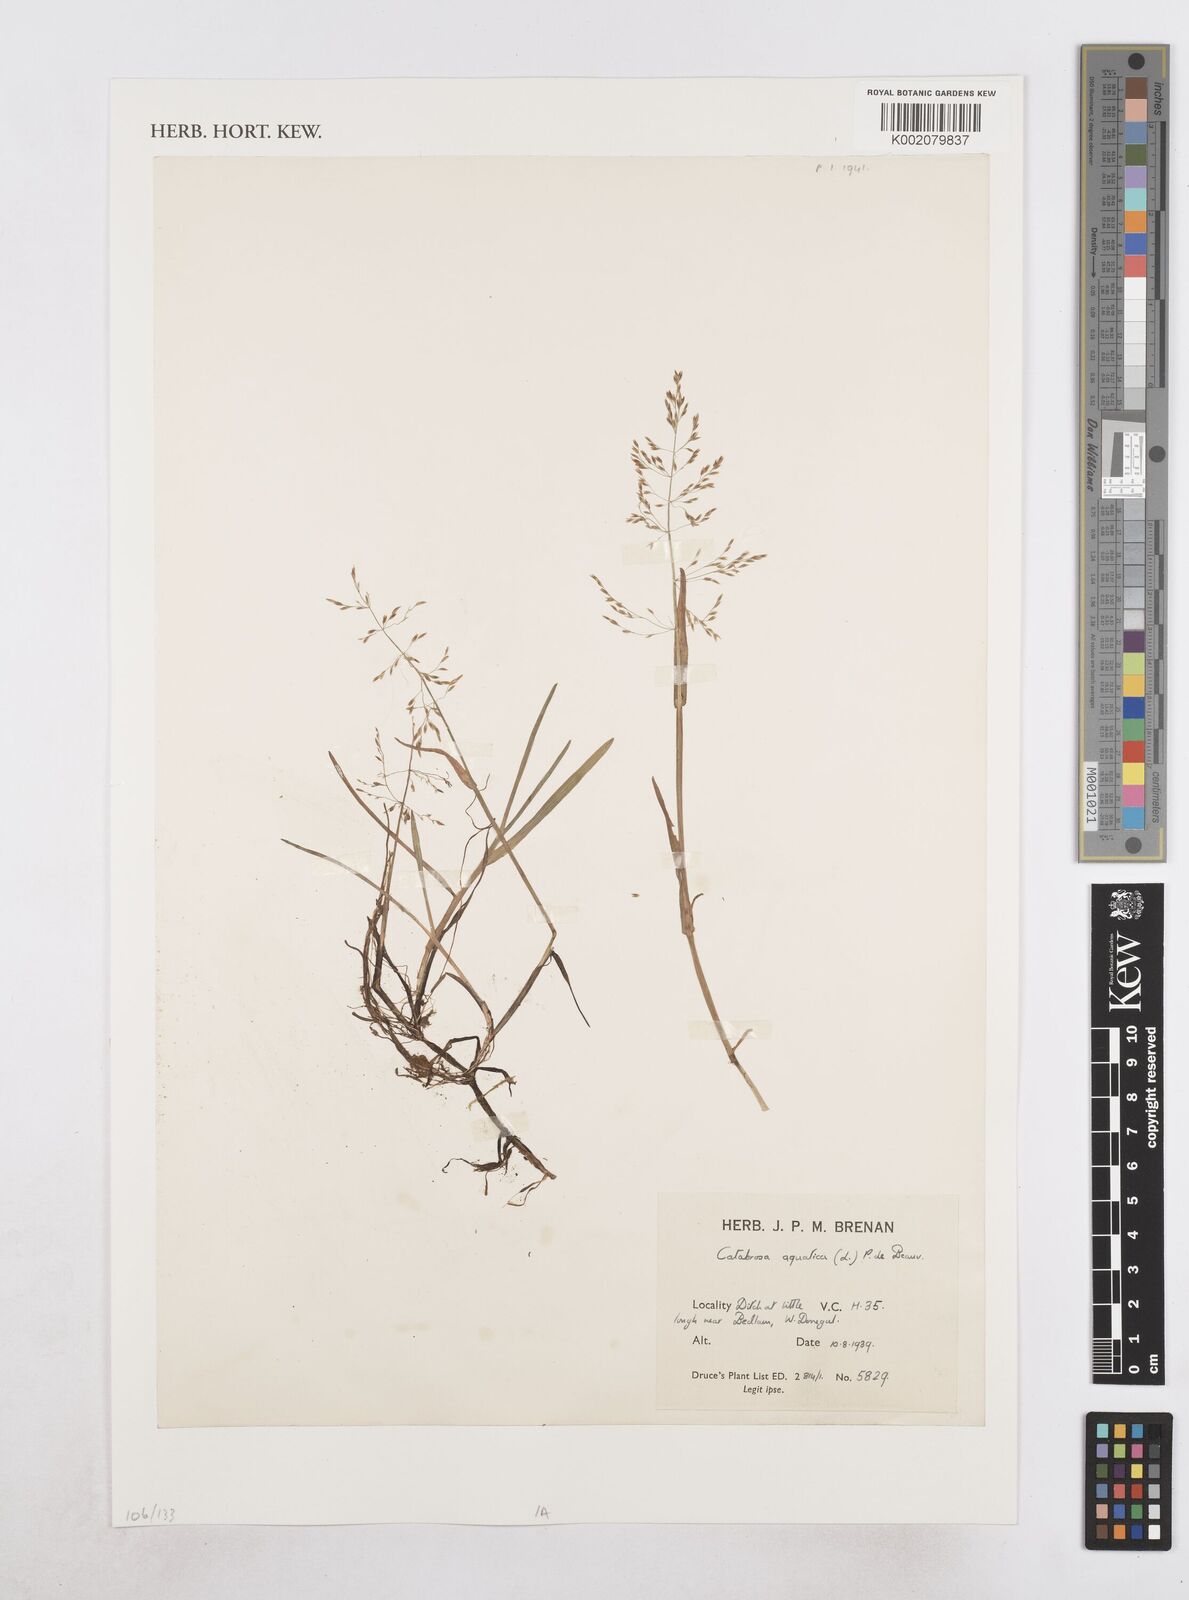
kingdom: Plantae
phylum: Tracheophyta
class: Liliopsida
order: Poales
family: Poaceae
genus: Catabrosa
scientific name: Catabrosa aquatica
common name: Whorl-grass
